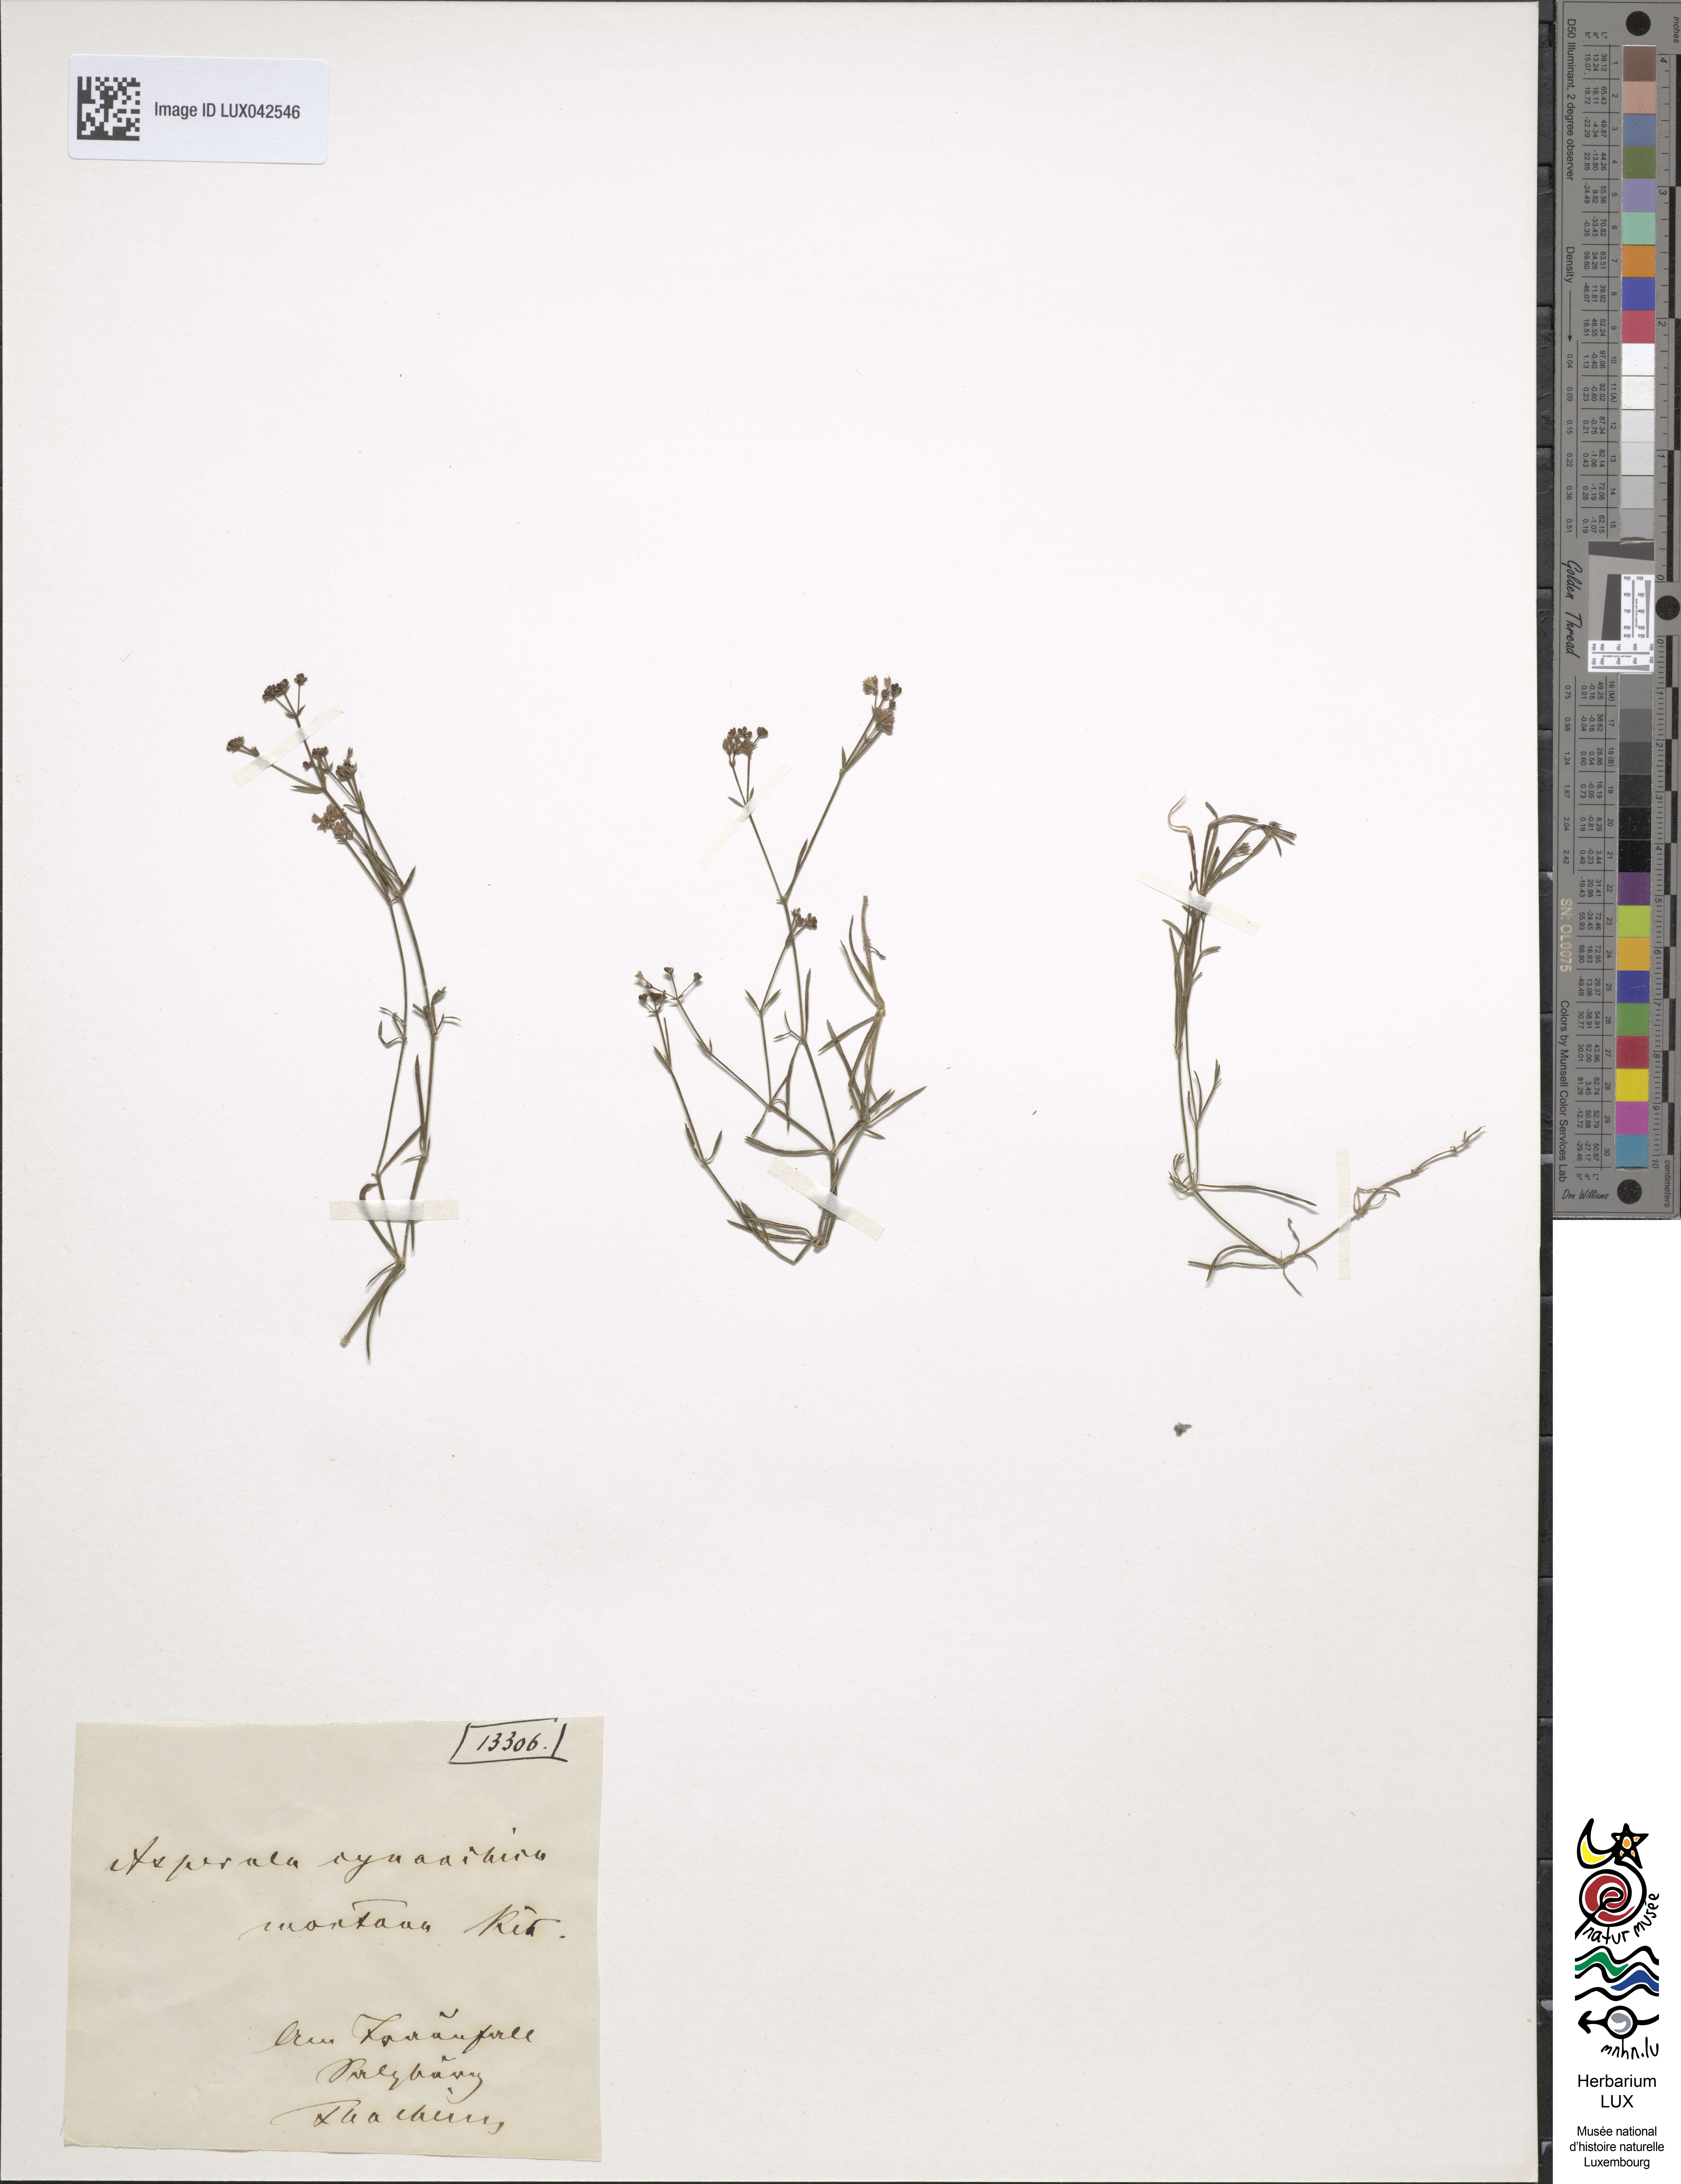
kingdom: Plantae
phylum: Tracheophyta
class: Magnoliopsida
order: Gentianales
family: Rubiaceae
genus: Cynanchica
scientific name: Cynanchica pyrenaica
